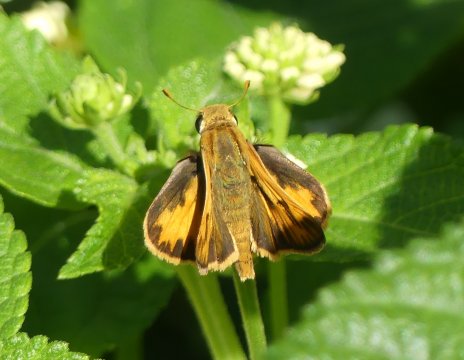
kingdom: Animalia
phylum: Arthropoda
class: Insecta
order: Lepidoptera
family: Hesperiidae
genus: Hylephila
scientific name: Hylephila phyleus
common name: Fiery Skipper
